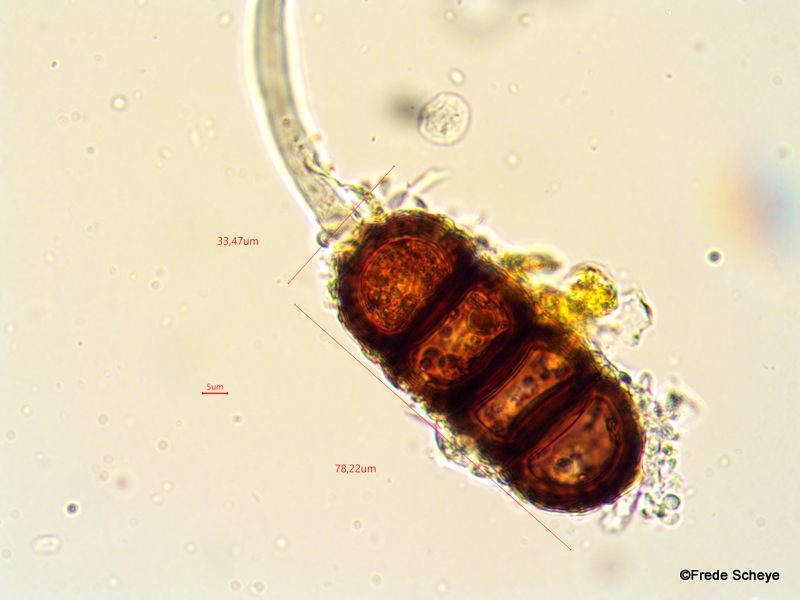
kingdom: Fungi
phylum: Basidiomycota
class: Pucciniomycetes
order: Pucciniales
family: Phragmidiaceae
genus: Phragmidium
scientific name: Phragmidium violaceum
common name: violet flercellerust
